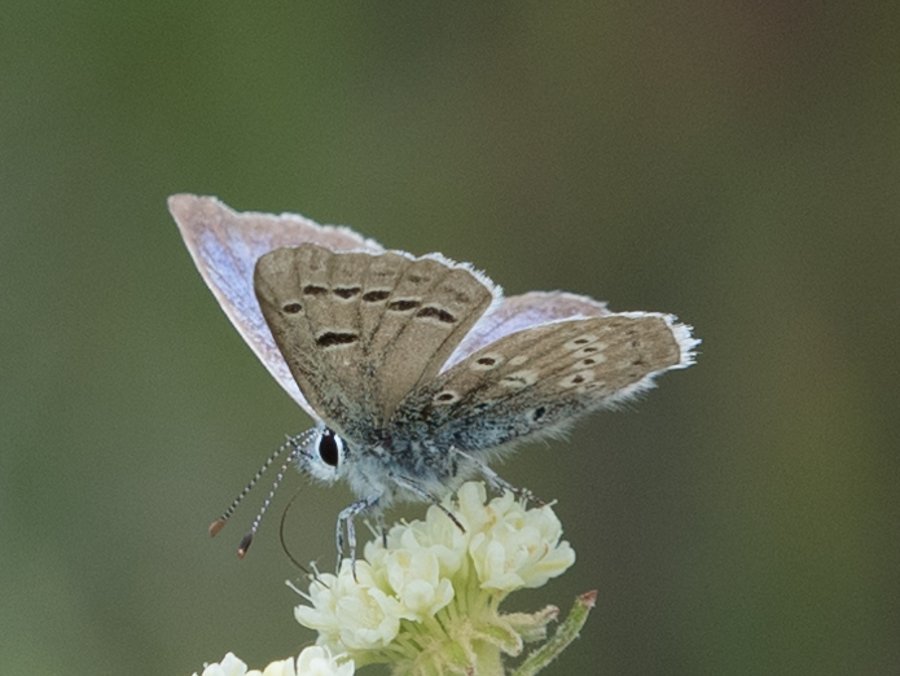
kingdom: Animalia
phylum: Arthropoda
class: Insecta
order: Lepidoptera
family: Lycaenidae
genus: Icaricia
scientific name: Icaricia icarioides
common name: Boisduval's Blue
